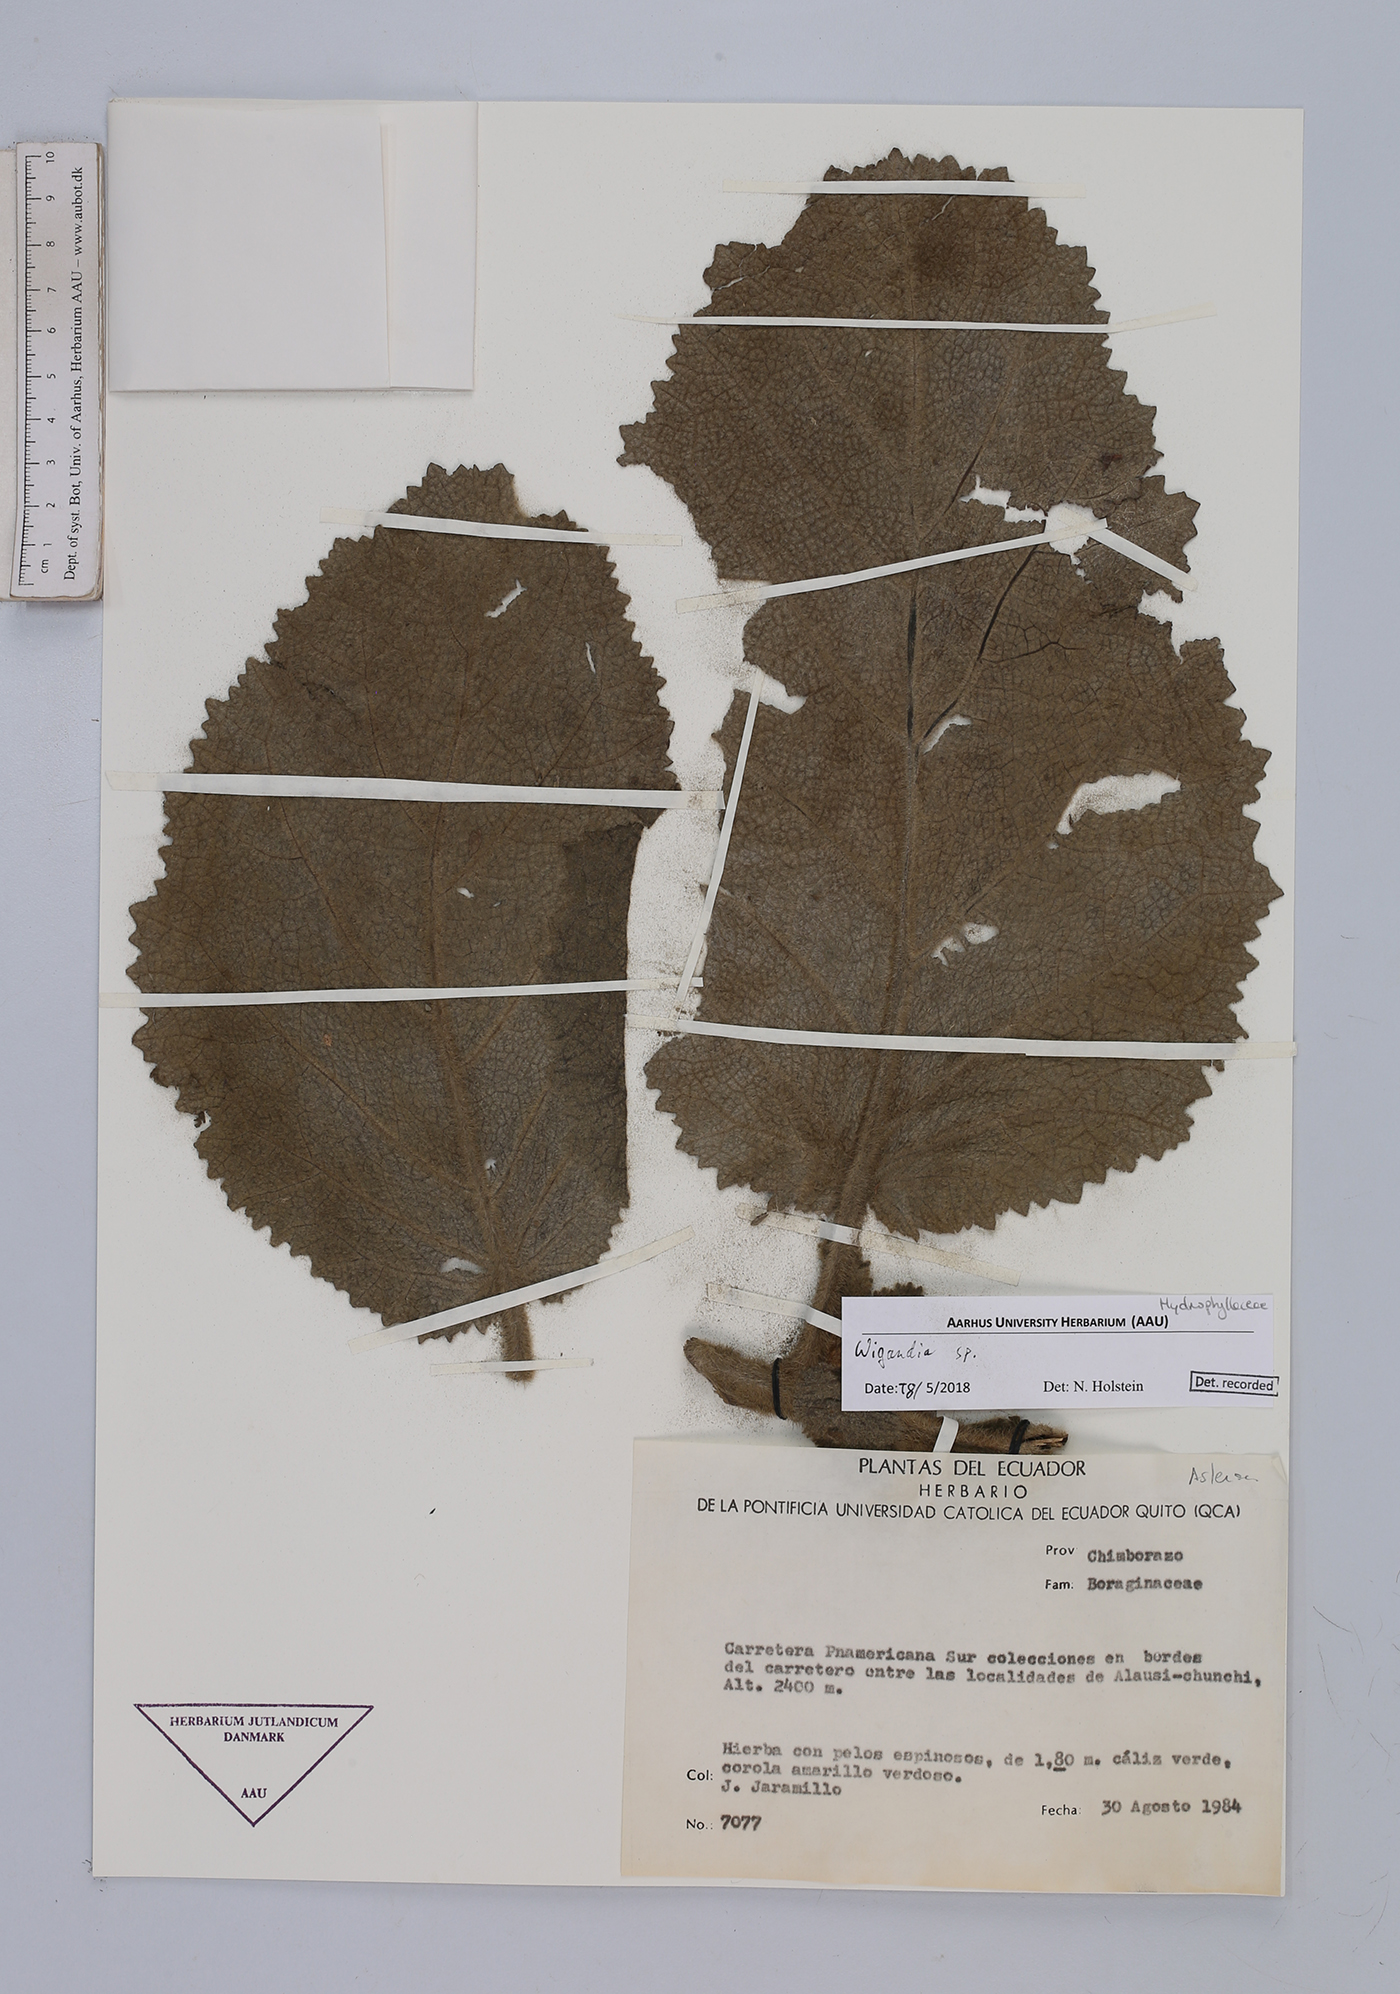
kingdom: Plantae
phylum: Tracheophyta
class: Magnoliopsida
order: Boraginales
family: Namaceae
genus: Wigandia
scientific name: Wigandia
